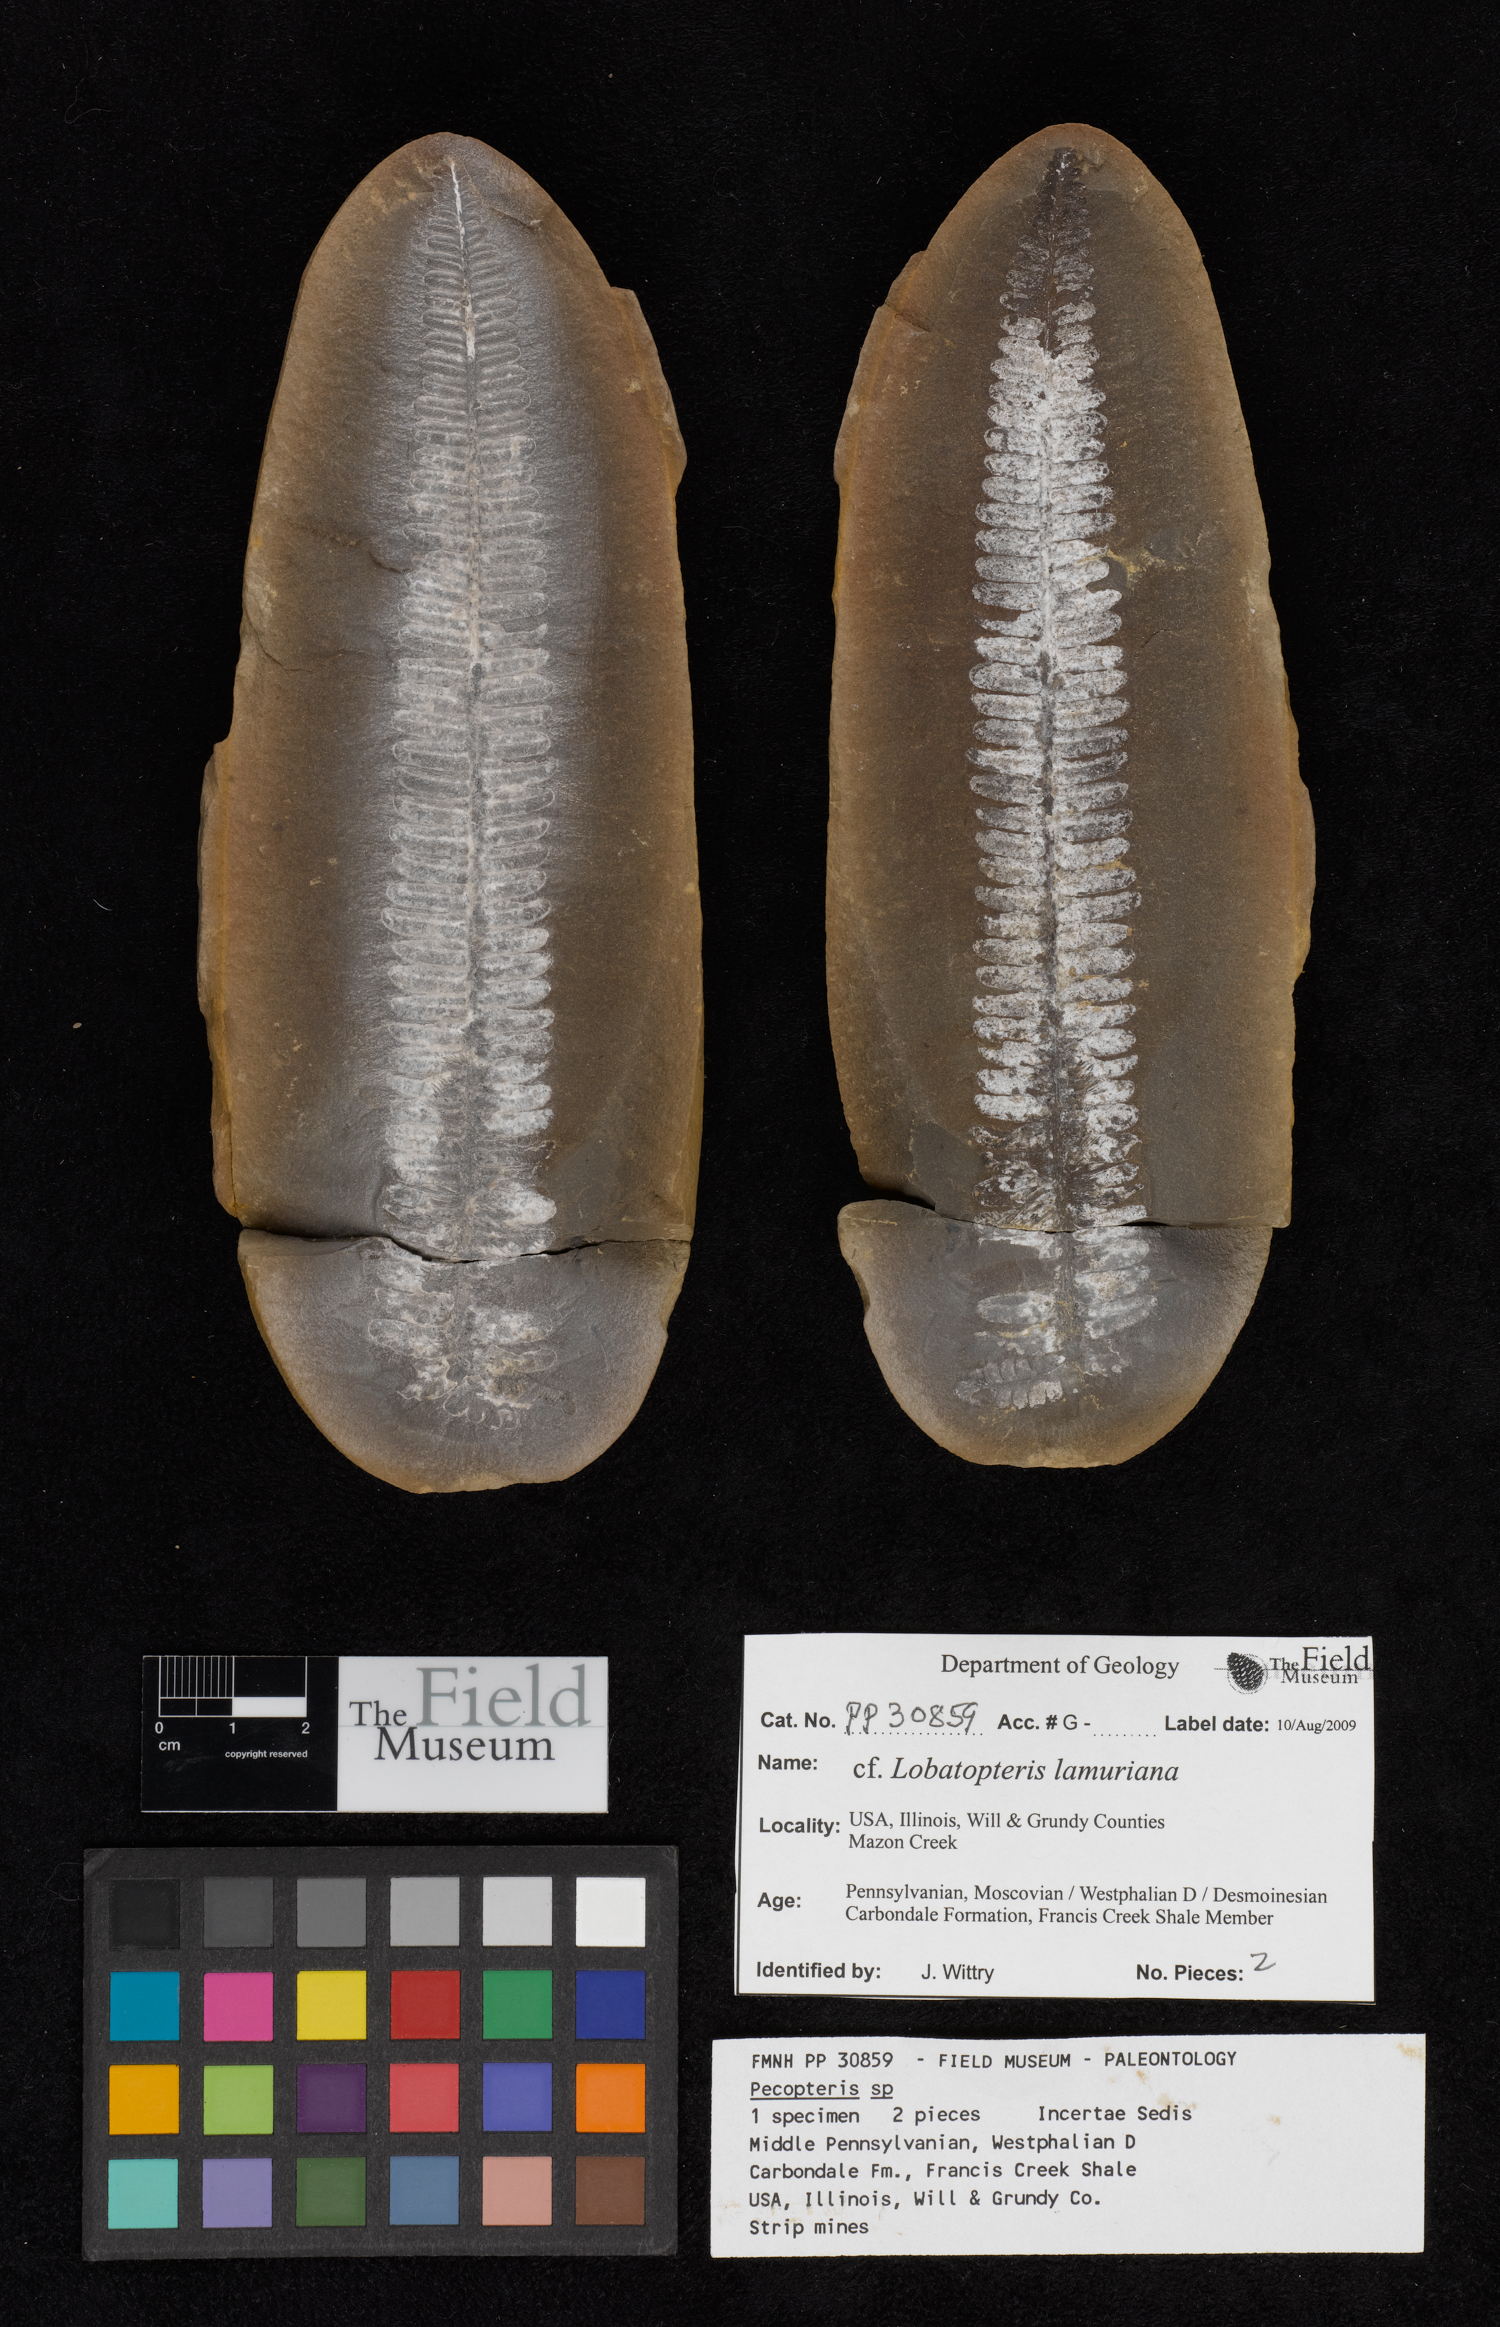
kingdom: Plantae
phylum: Tracheophyta
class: Polypodiopsida
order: Marattiales
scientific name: Marattiales
